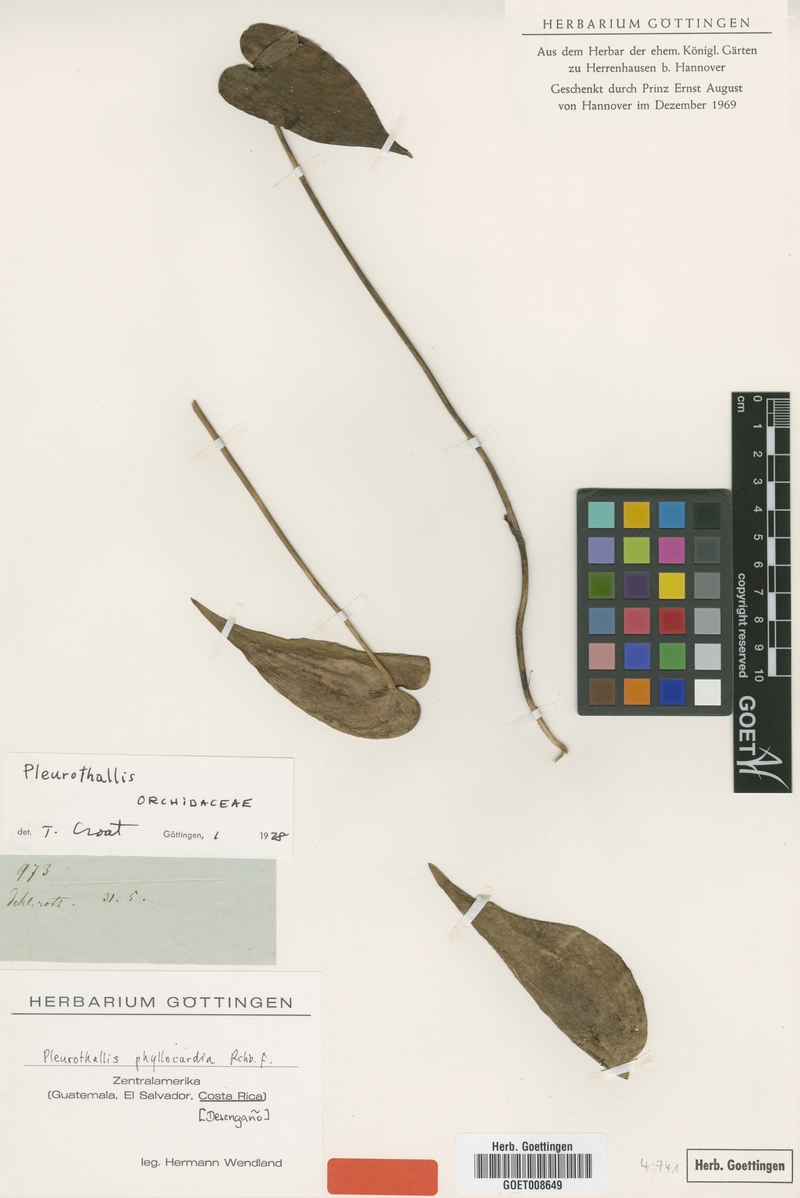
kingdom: Plantae
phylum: Tracheophyta
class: Liliopsida
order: Asparagales
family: Orchidaceae
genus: Pleurothallis
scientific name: Pleurothallis phyllocardia
